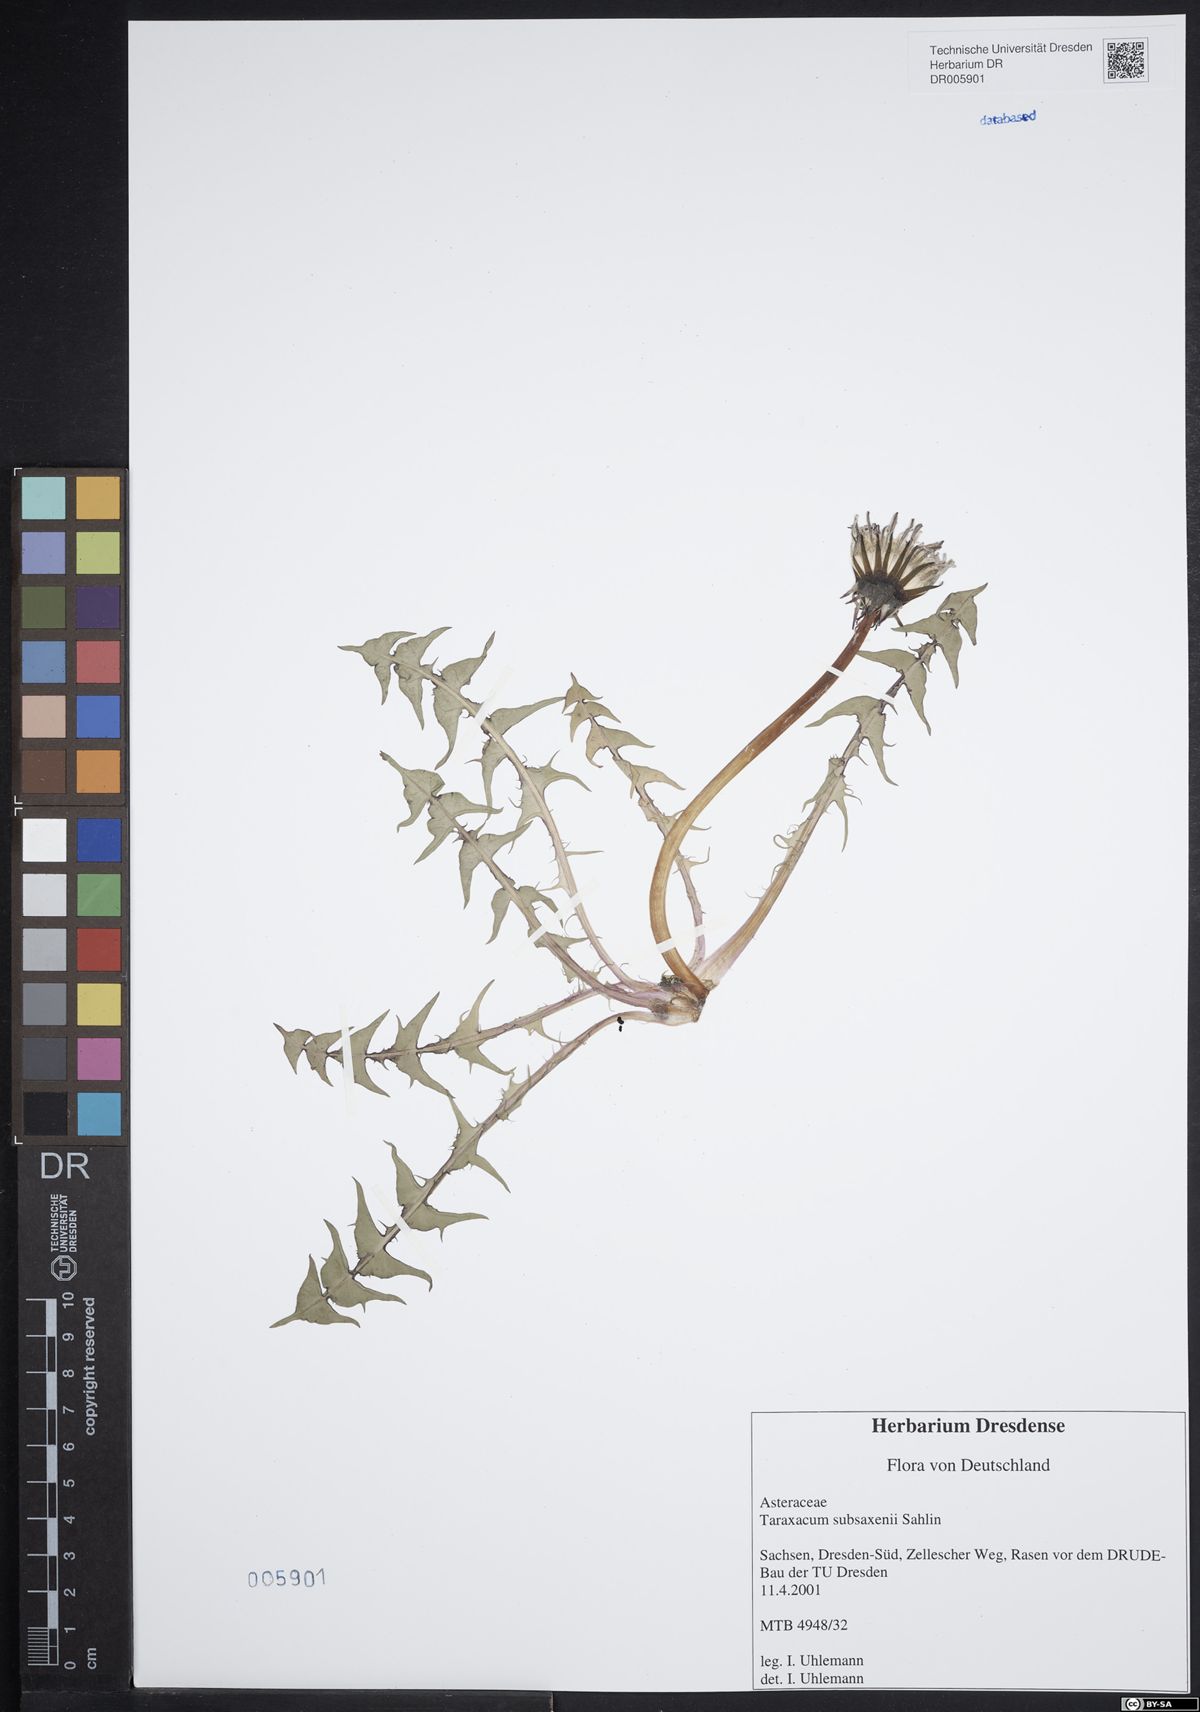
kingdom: Plantae
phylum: Tracheophyta
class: Magnoliopsida
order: Asterales
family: Asteraceae
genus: Taraxacum
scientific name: Taraxacum subsaxenii
